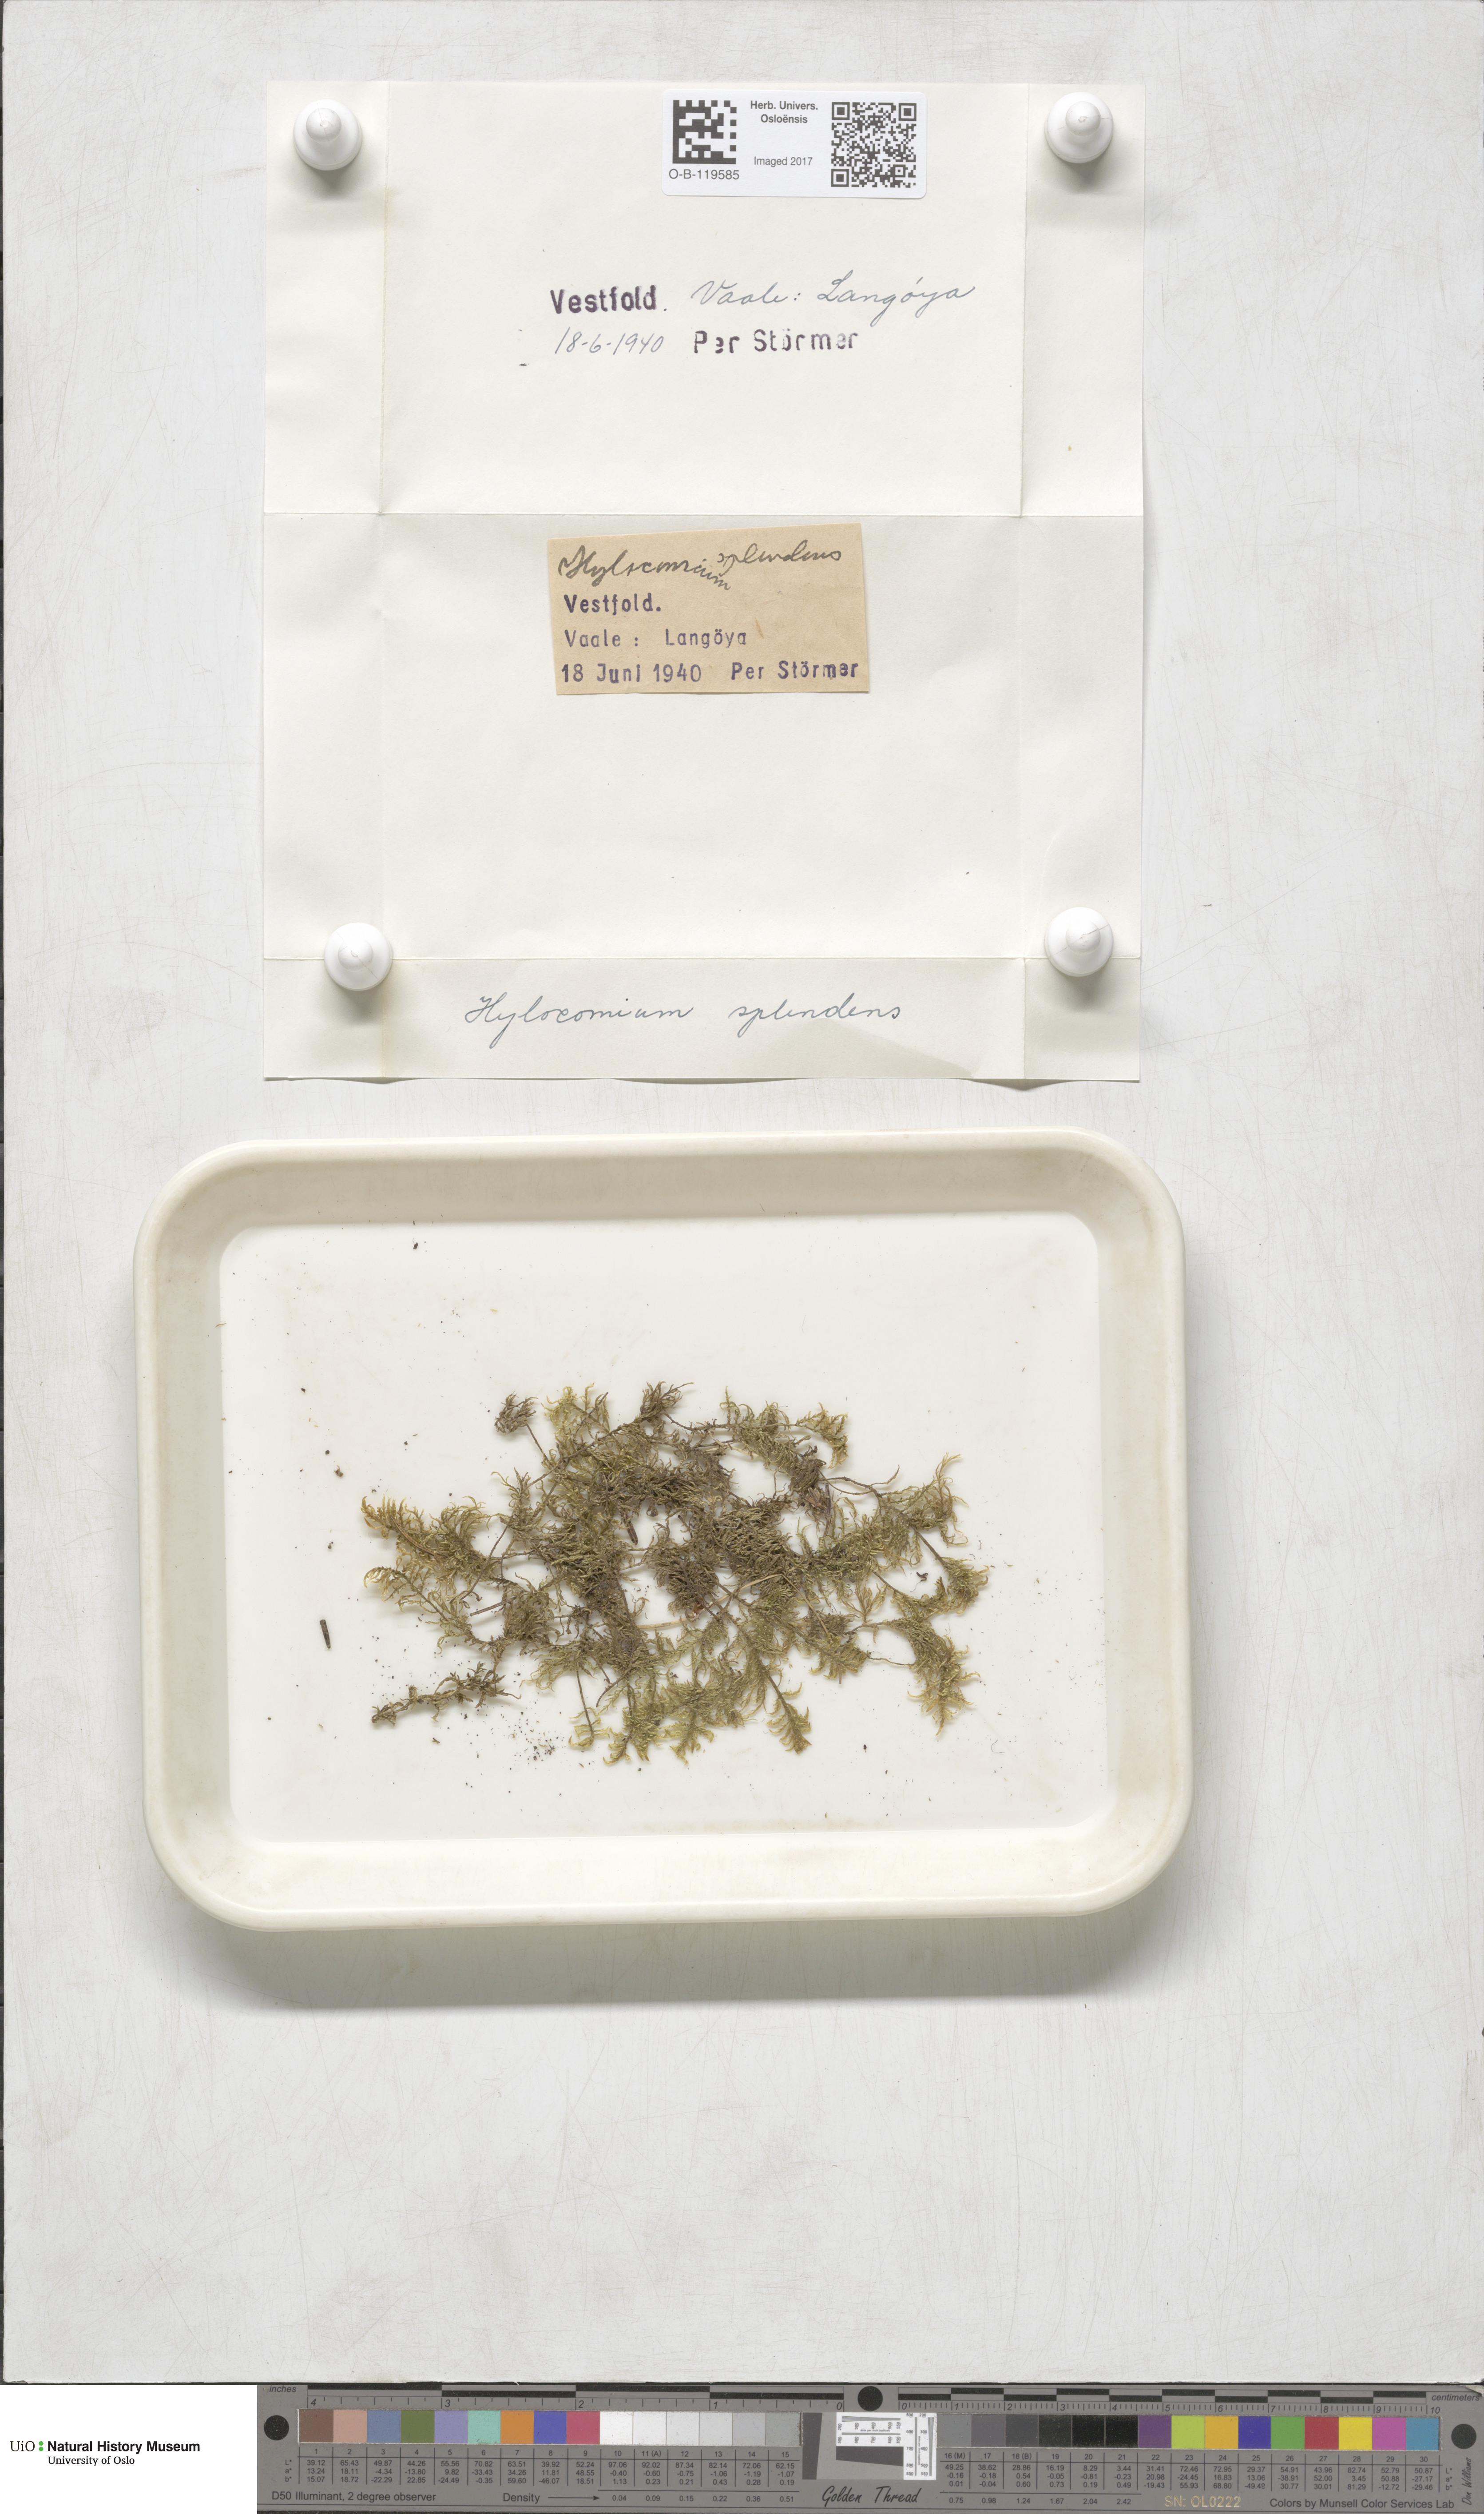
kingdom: Plantae
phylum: Bryophyta
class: Bryopsida
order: Hypnales
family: Hylocomiaceae
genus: Hylocomium
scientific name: Hylocomium splendens
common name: Stairstep moss
